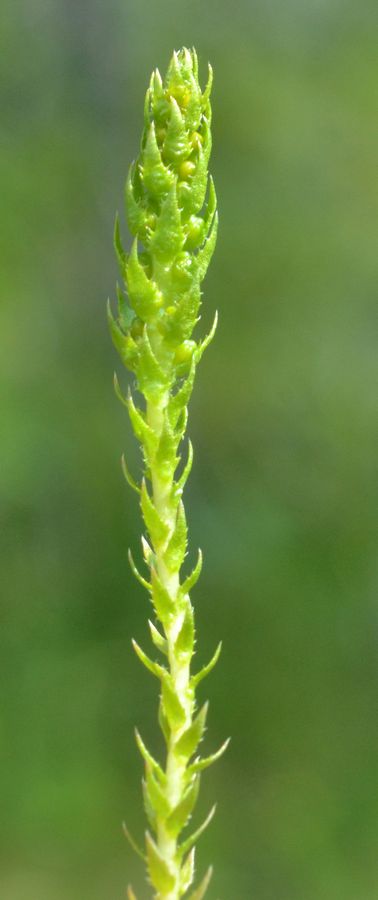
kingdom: Plantae
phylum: Tracheophyta
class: Lycopodiopsida
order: Selaginellales
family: Selaginellaceae
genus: Selaginella
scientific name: Selaginella selaginoides
